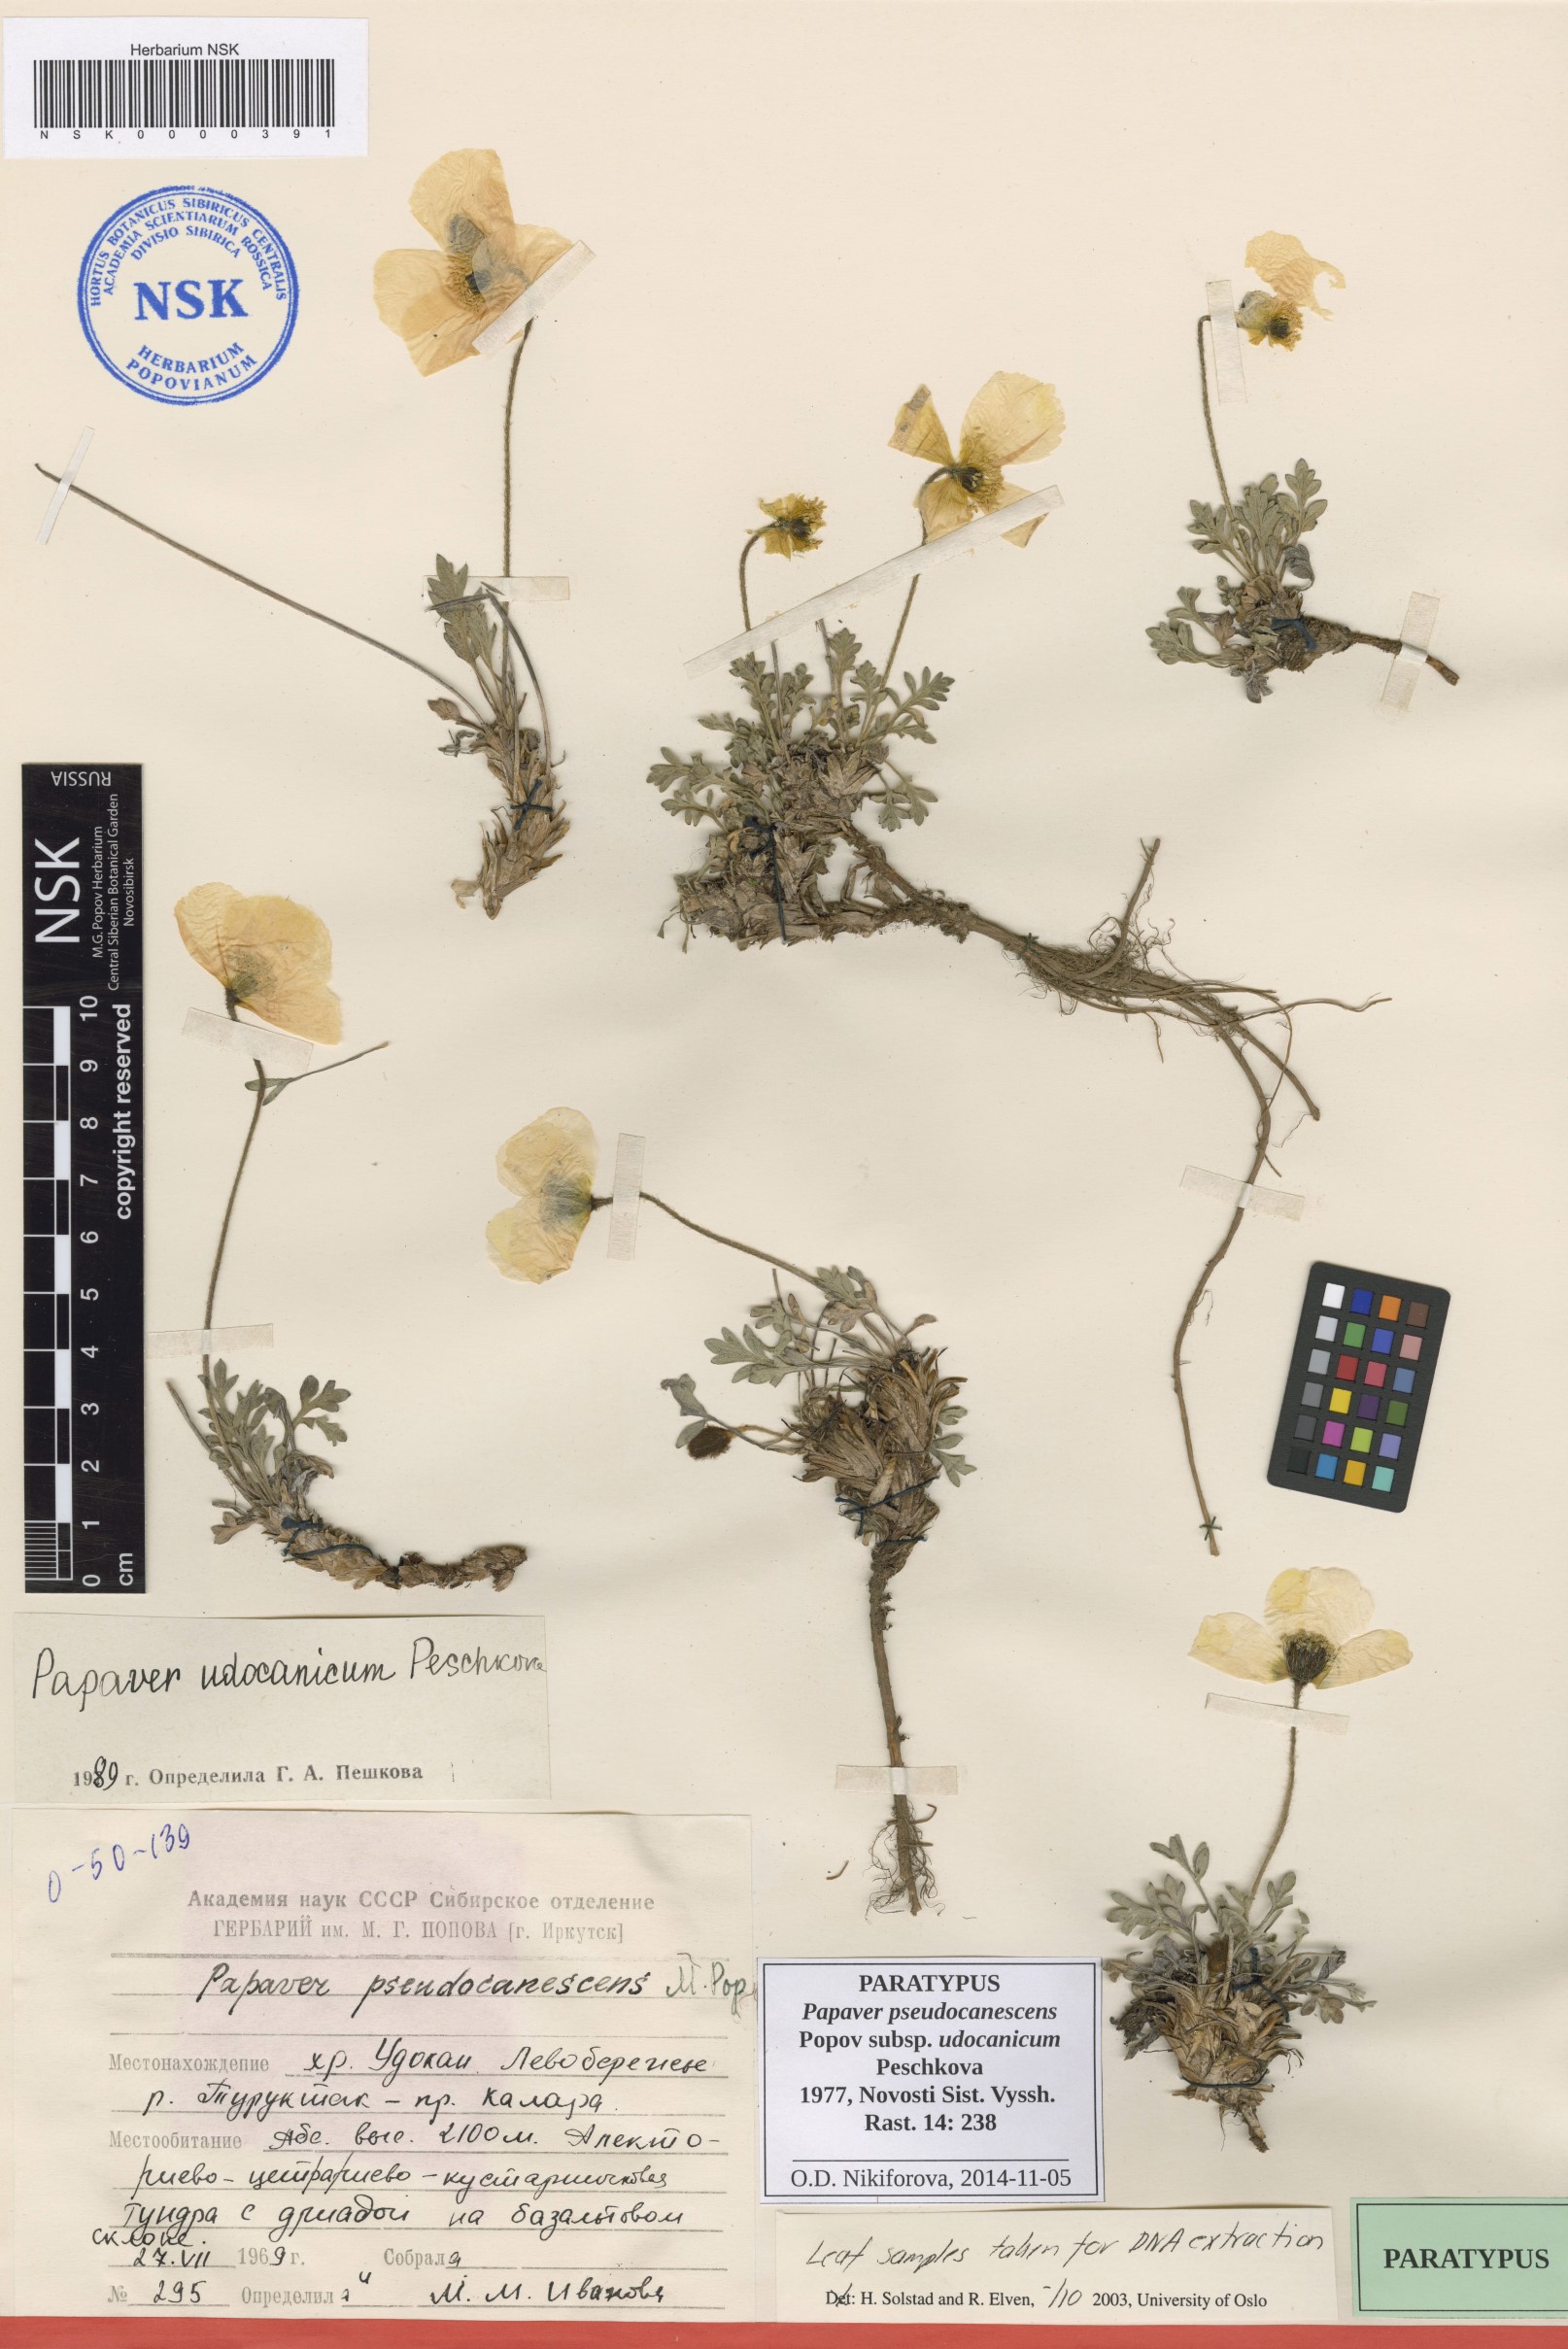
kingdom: Plantae
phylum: Tracheophyta
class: Magnoliopsida
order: Ranunculales
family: Papaveraceae
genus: Papaver
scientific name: Papaver udocanicum
